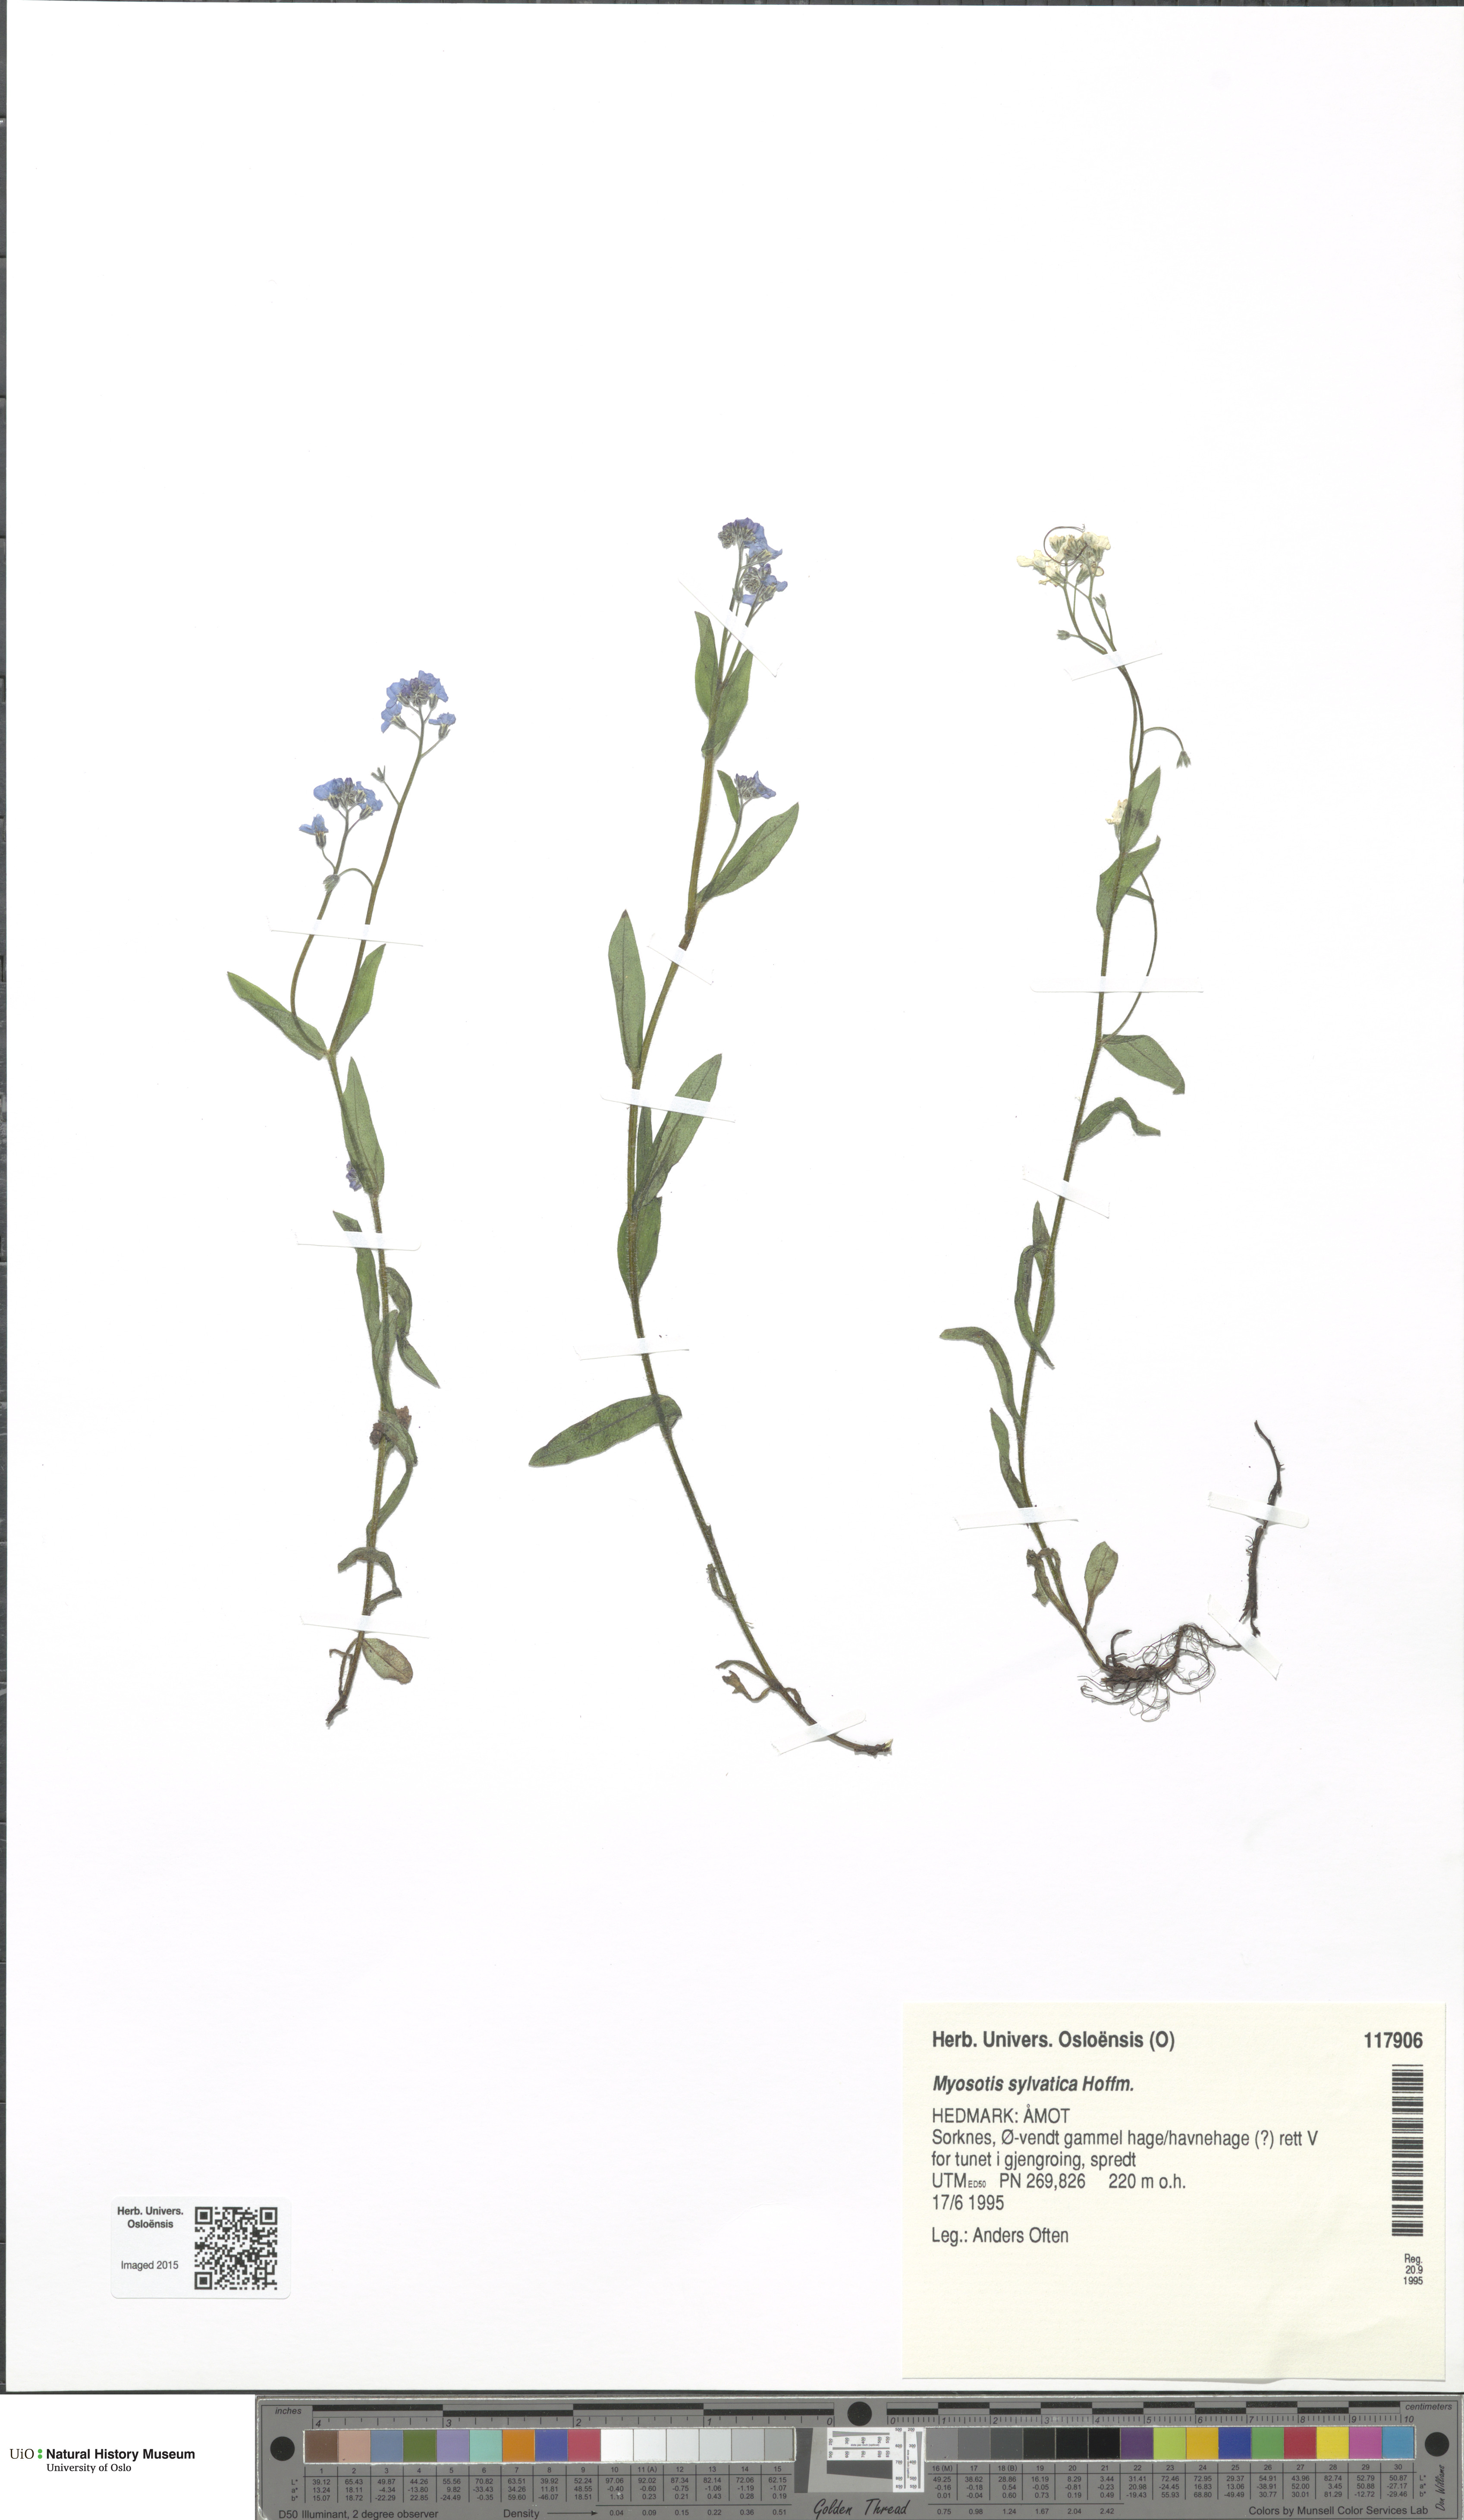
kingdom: Plantae
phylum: Tracheophyta
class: Magnoliopsida
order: Boraginales
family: Boraginaceae
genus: Myosotis
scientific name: Myosotis sylvatica
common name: Wood forget-me-not
